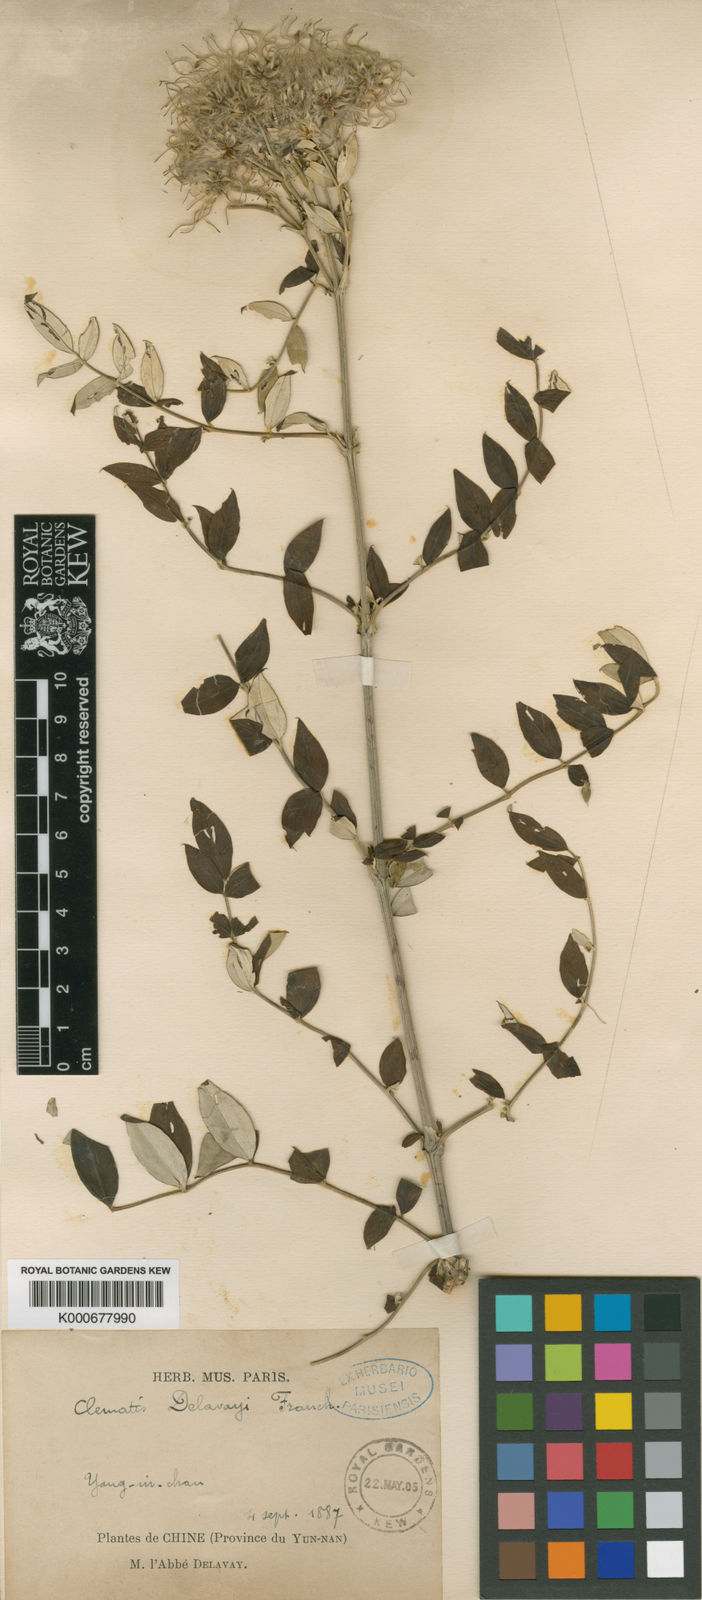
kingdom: Plantae
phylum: Tracheophyta
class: Magnoliopsida
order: Ranunculales
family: Ranunculaceae
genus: Clematis
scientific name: Clematis delavayi
